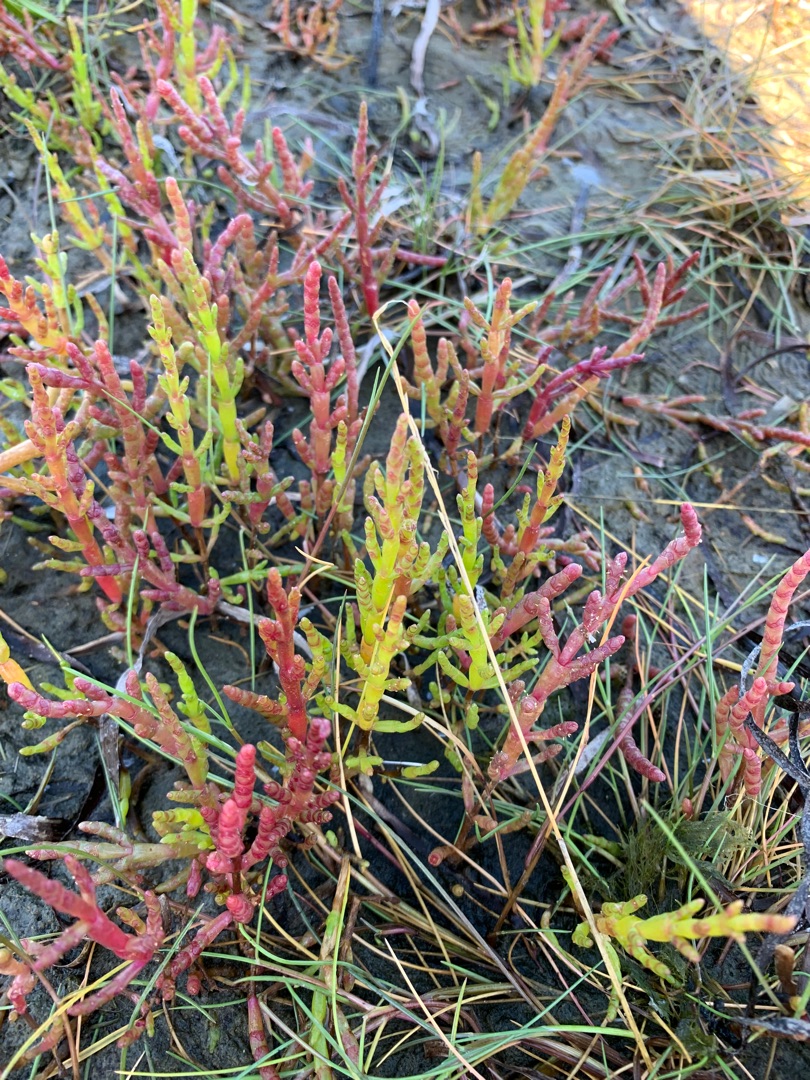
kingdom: Plantae
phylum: Tracheophyta
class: Magnoliopsida
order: Caryophyllales
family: Amaranthaceae
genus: Salicornia
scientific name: Salicornia europaea
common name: Almindelig salturt
